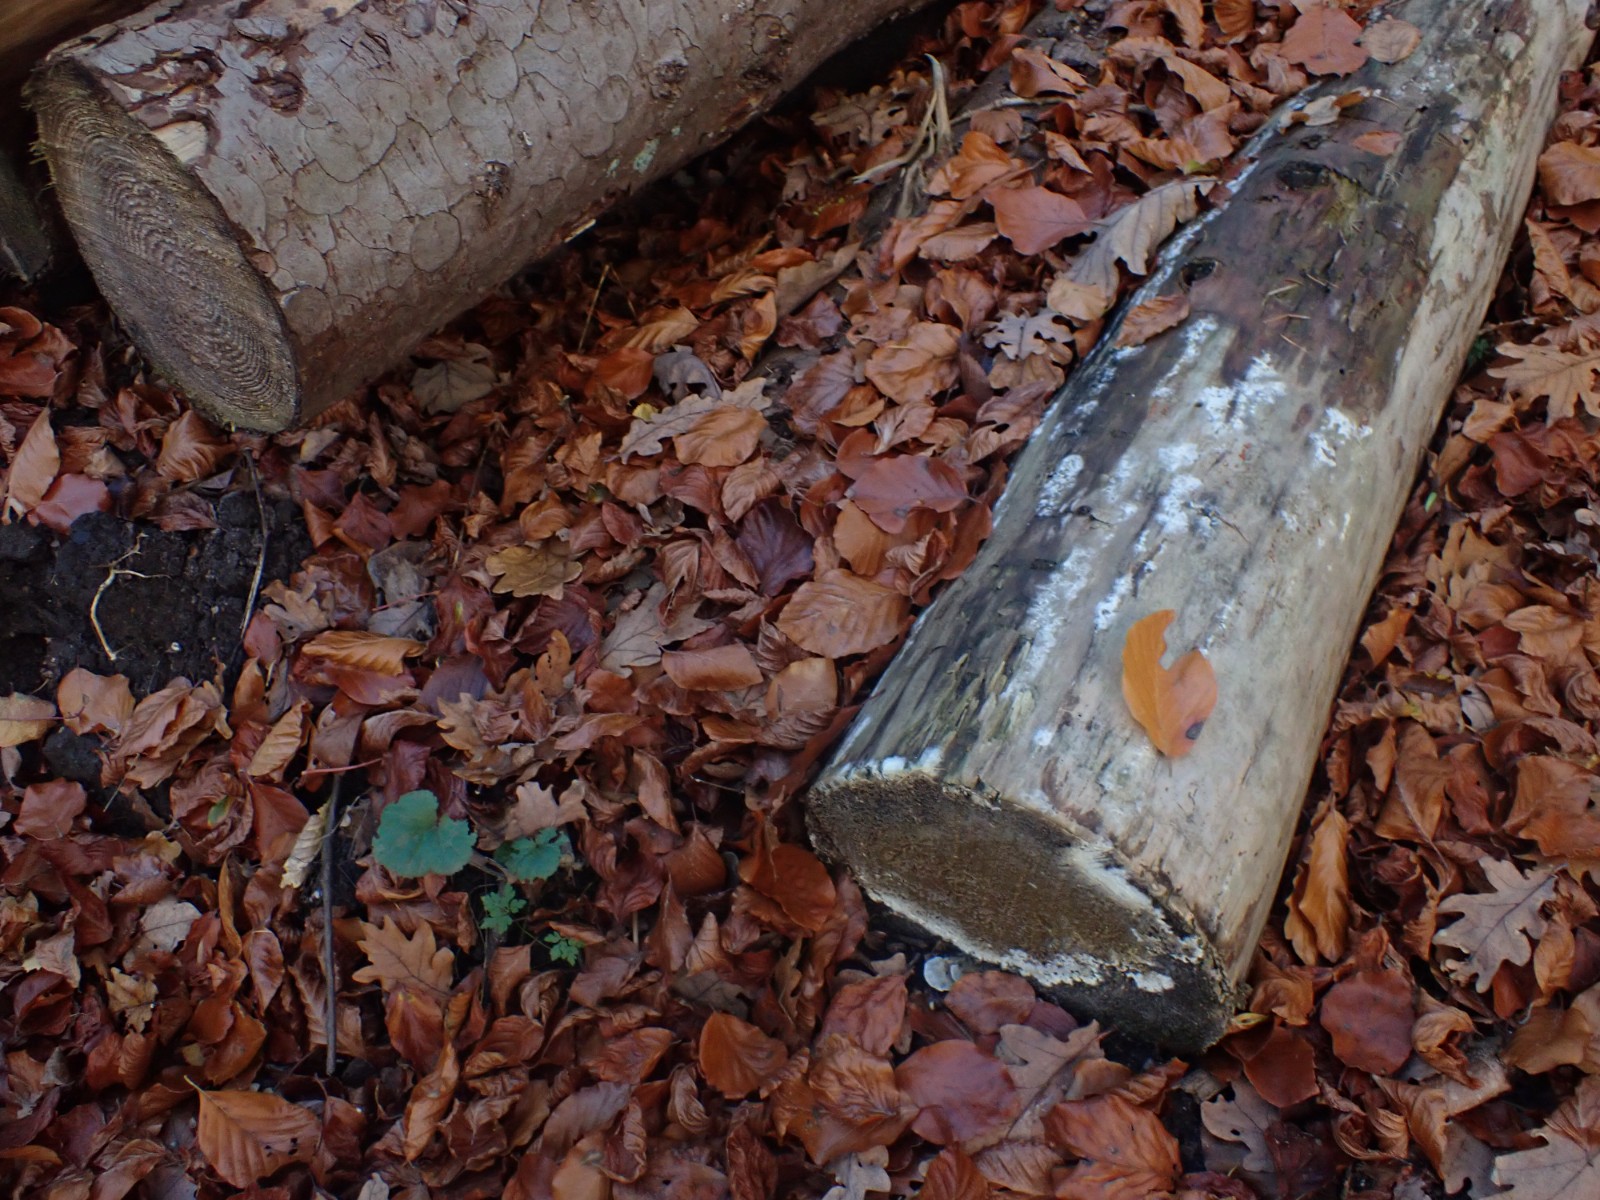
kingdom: Fungi
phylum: Basidiomycota
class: Agaricomycetes
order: Boletales
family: Coniophoraceae
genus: Coniophora
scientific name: Coniophora puteana
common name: gul tømmersvamp
